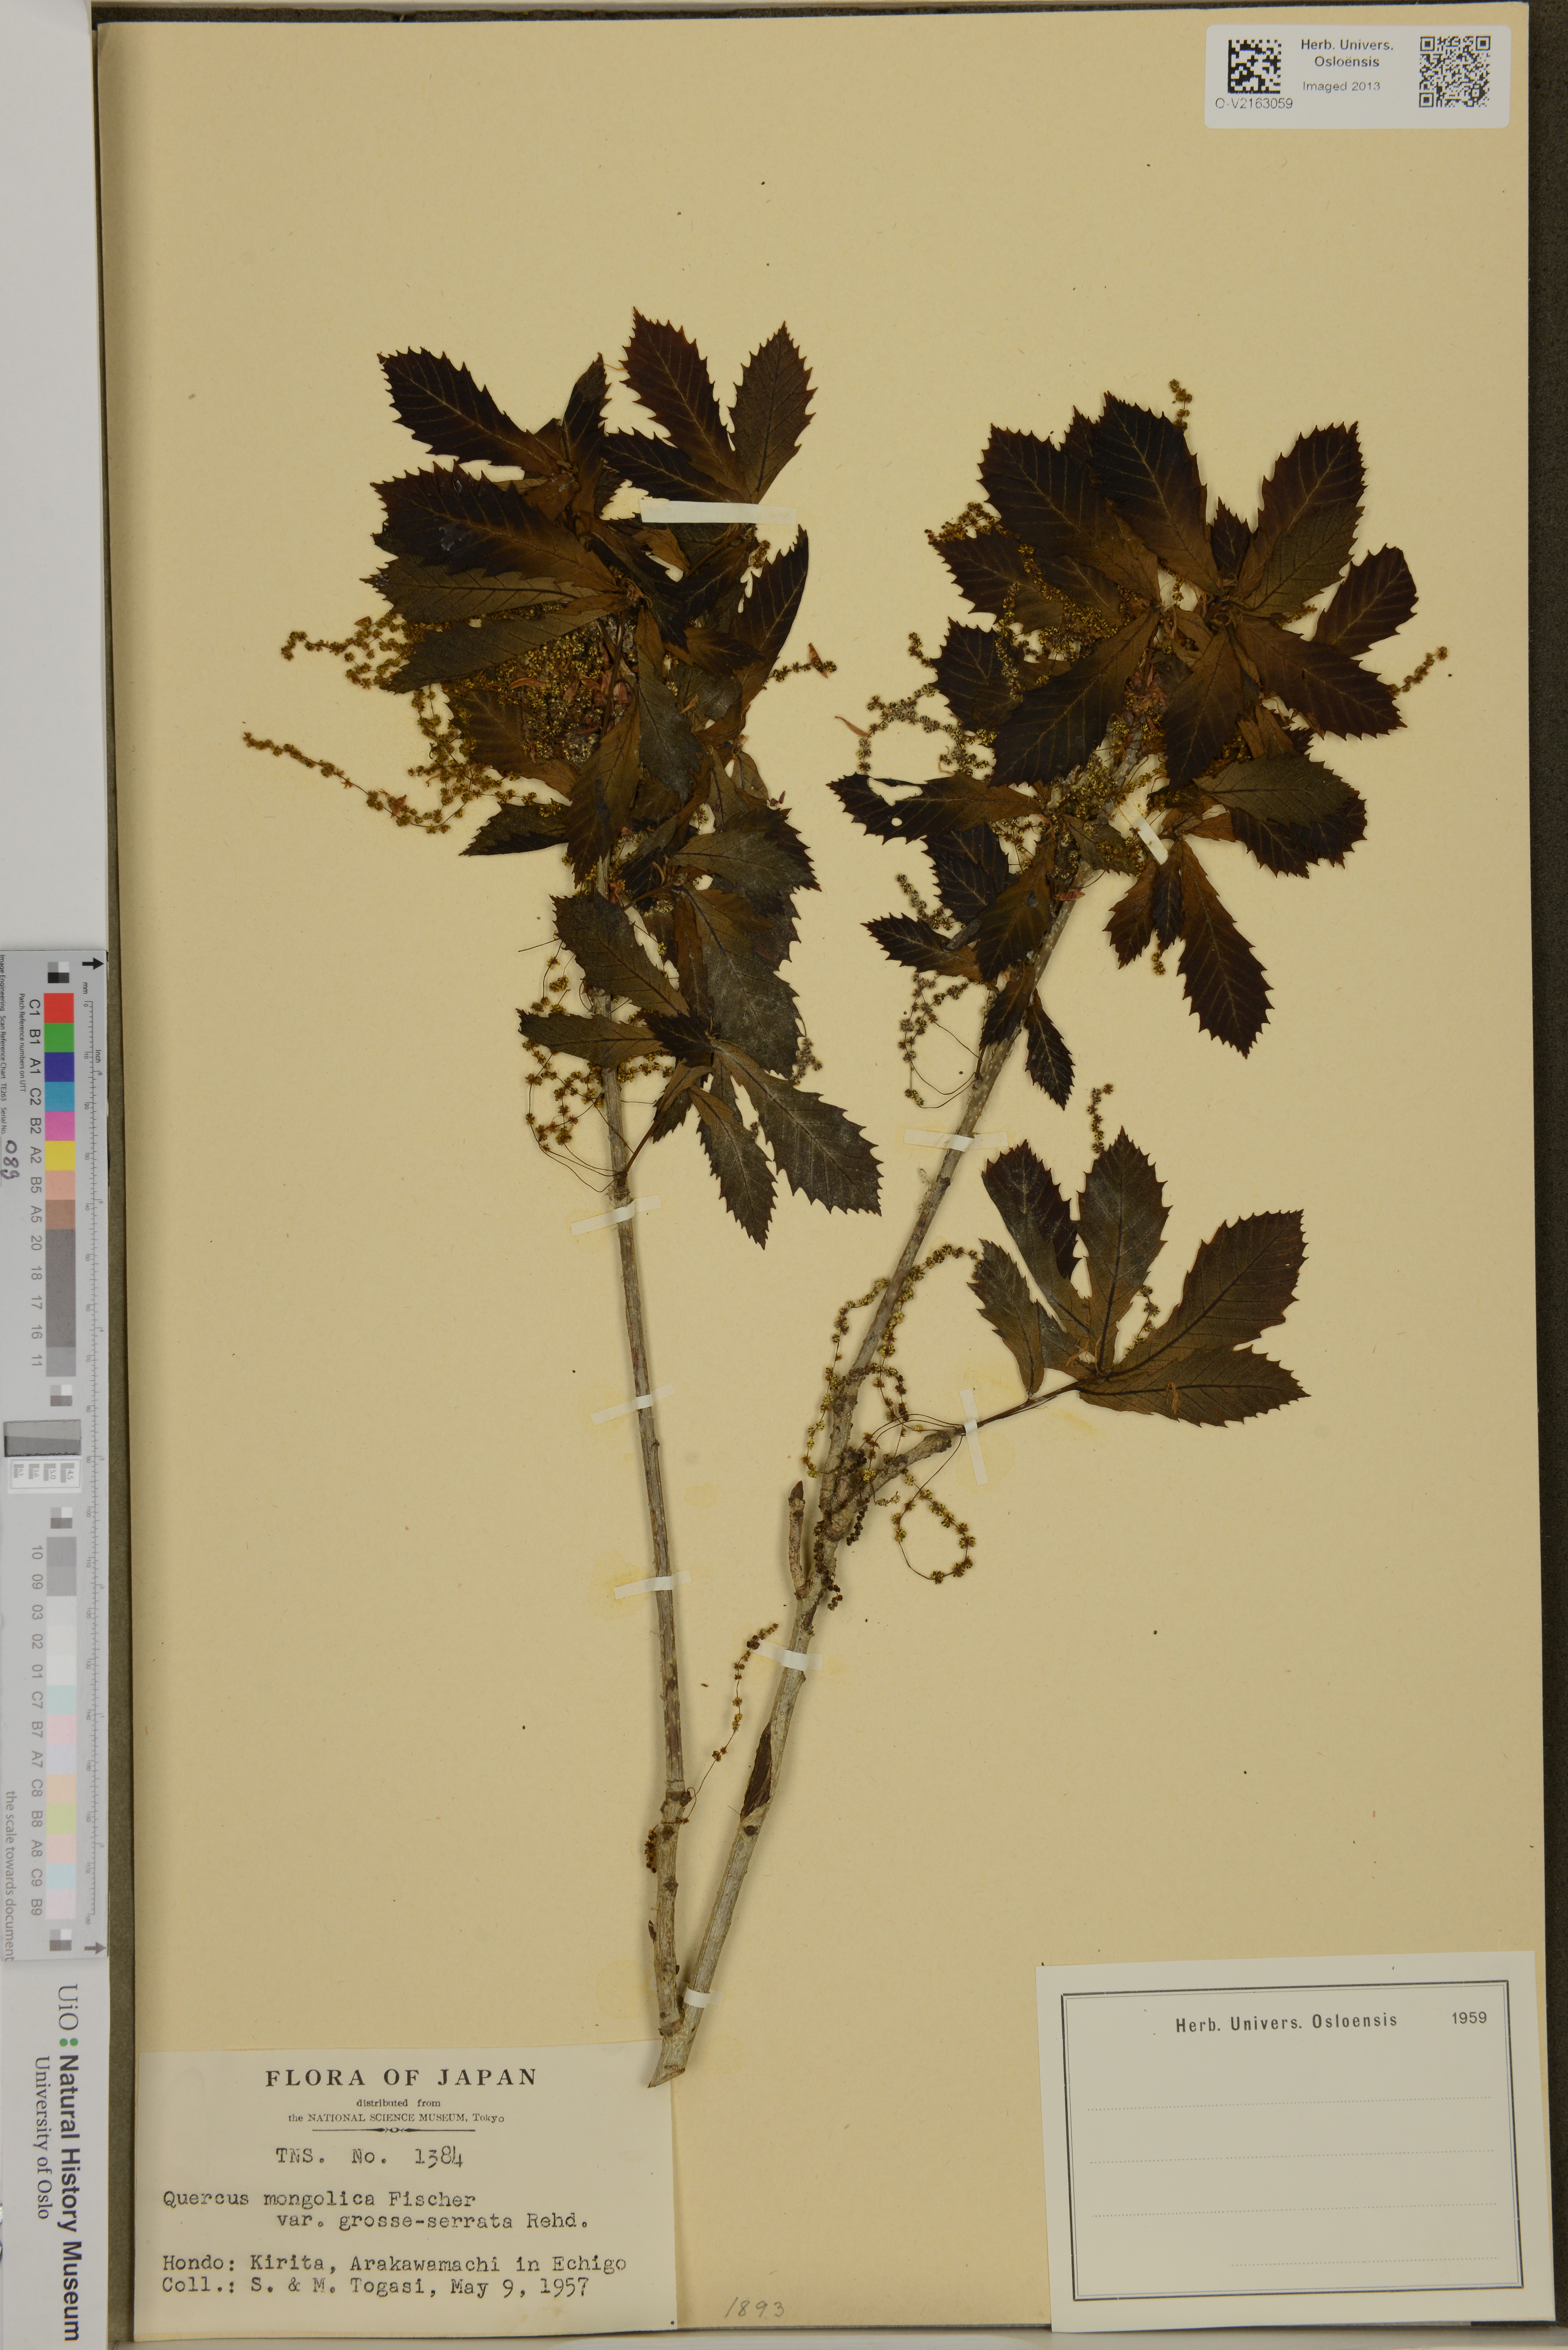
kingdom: Plantae
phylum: Tracheophyta
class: Magnoliopsida
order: Fagales
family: Fagaceae
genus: Quercus
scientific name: Quercus mongolica
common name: Mongolian oak
